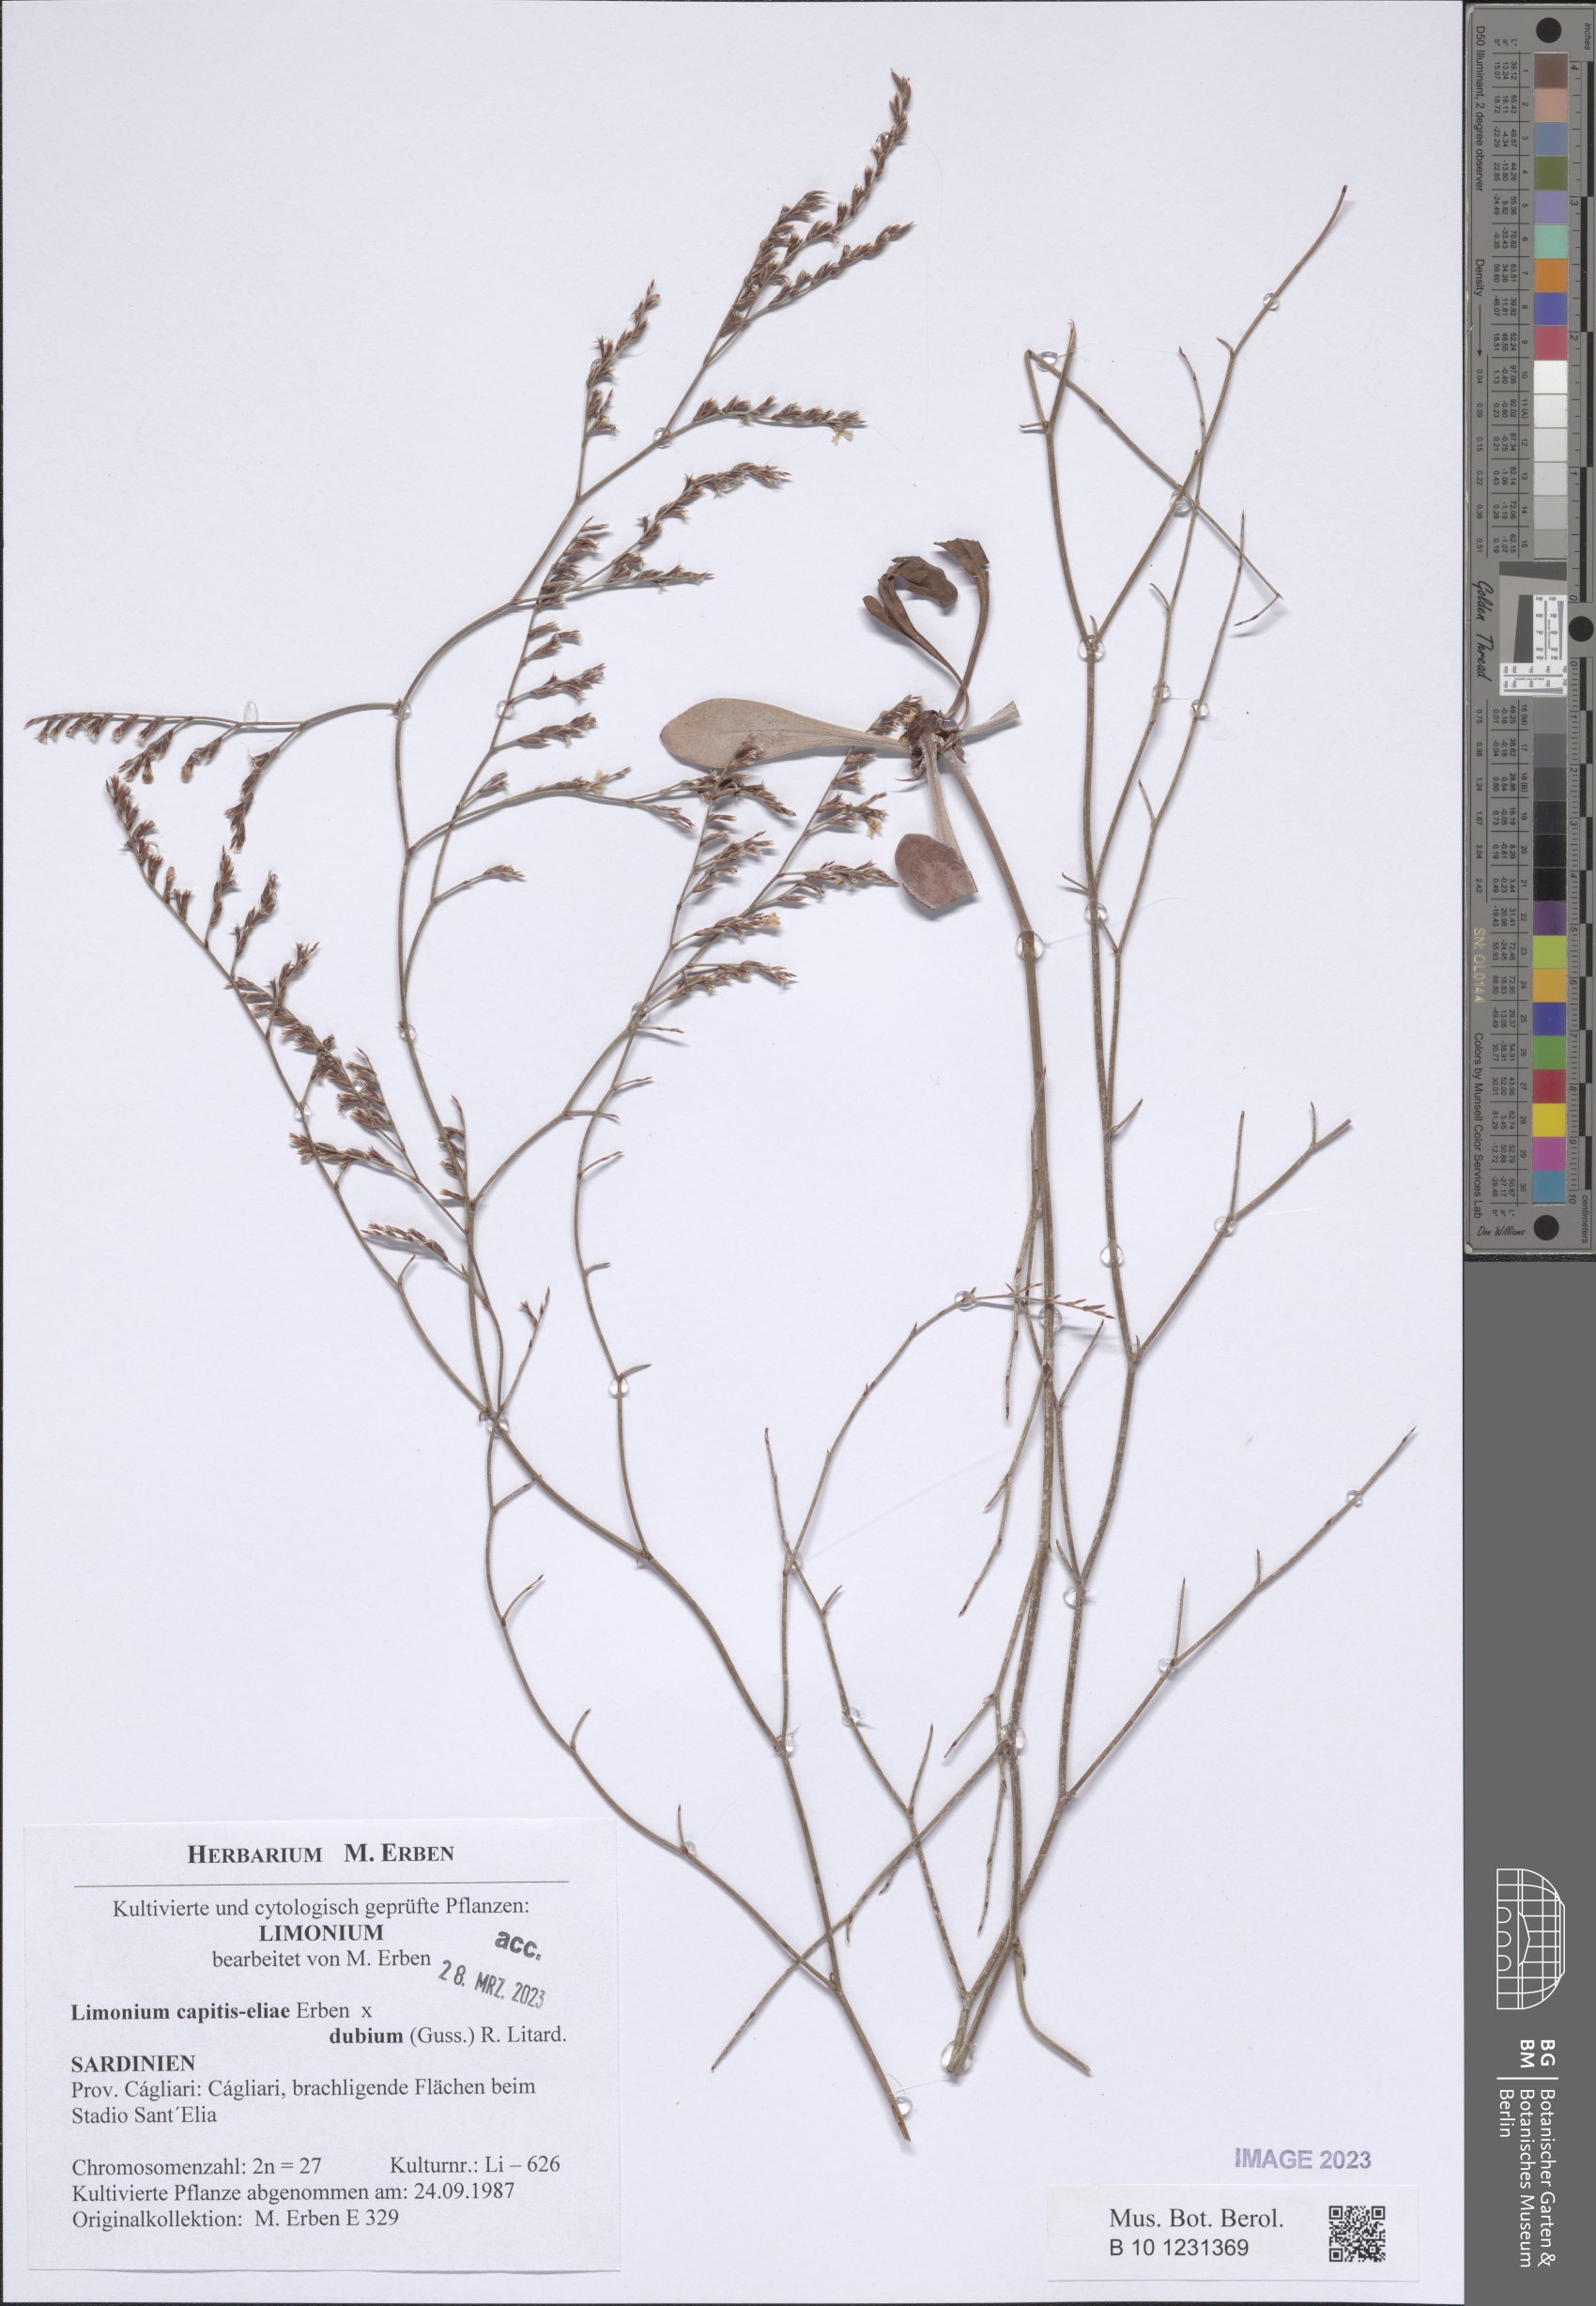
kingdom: Plantae
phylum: Tracheophyta
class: Magnoliopsida
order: Caryophyllales
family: Plumbaginaceae
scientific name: Plumbaginaceae
